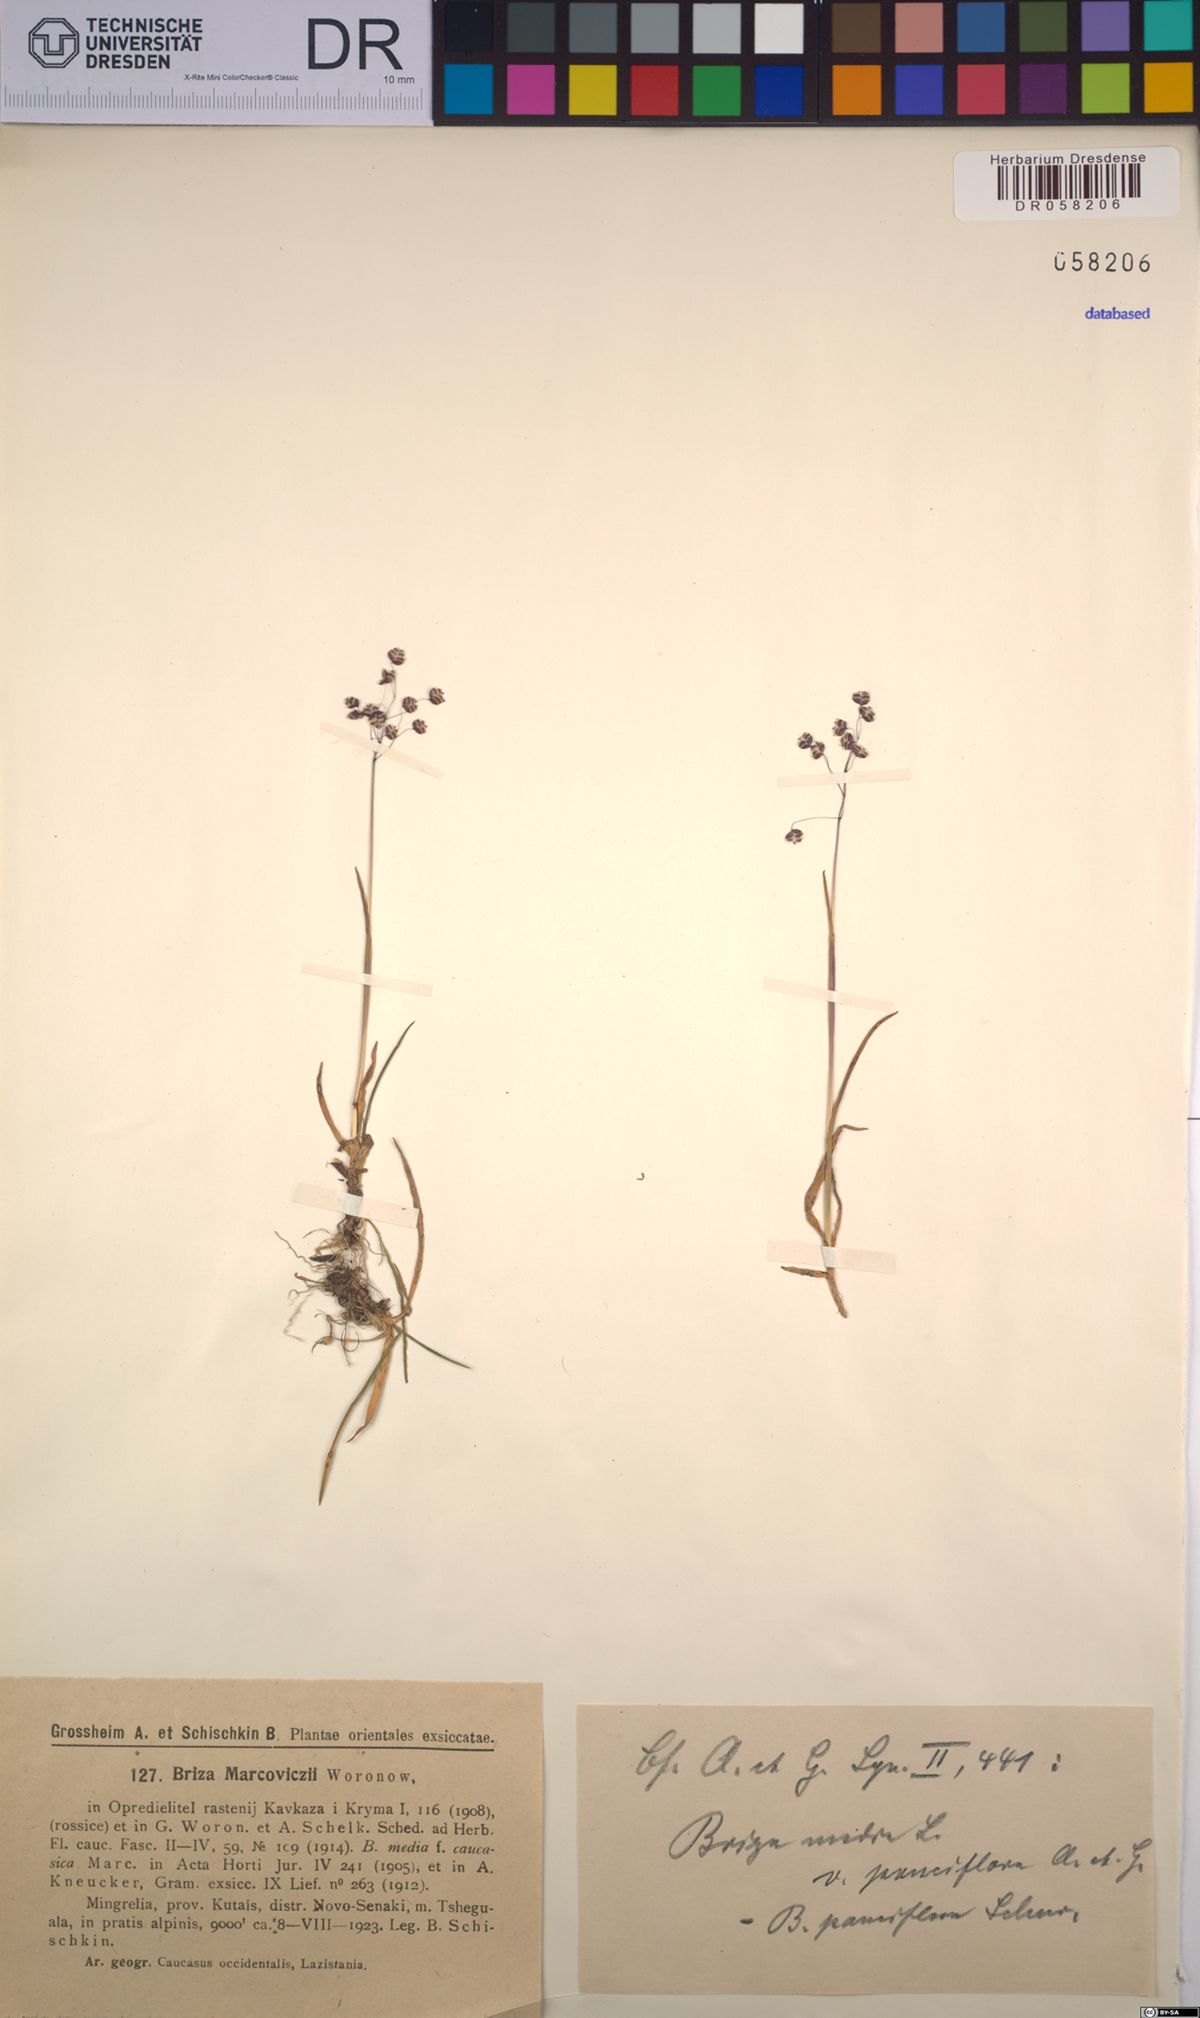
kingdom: Plantae
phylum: Tracheophyta
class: Liliopsida
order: Poales
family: Poaceae
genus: Briza
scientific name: Briza marcowiczii
